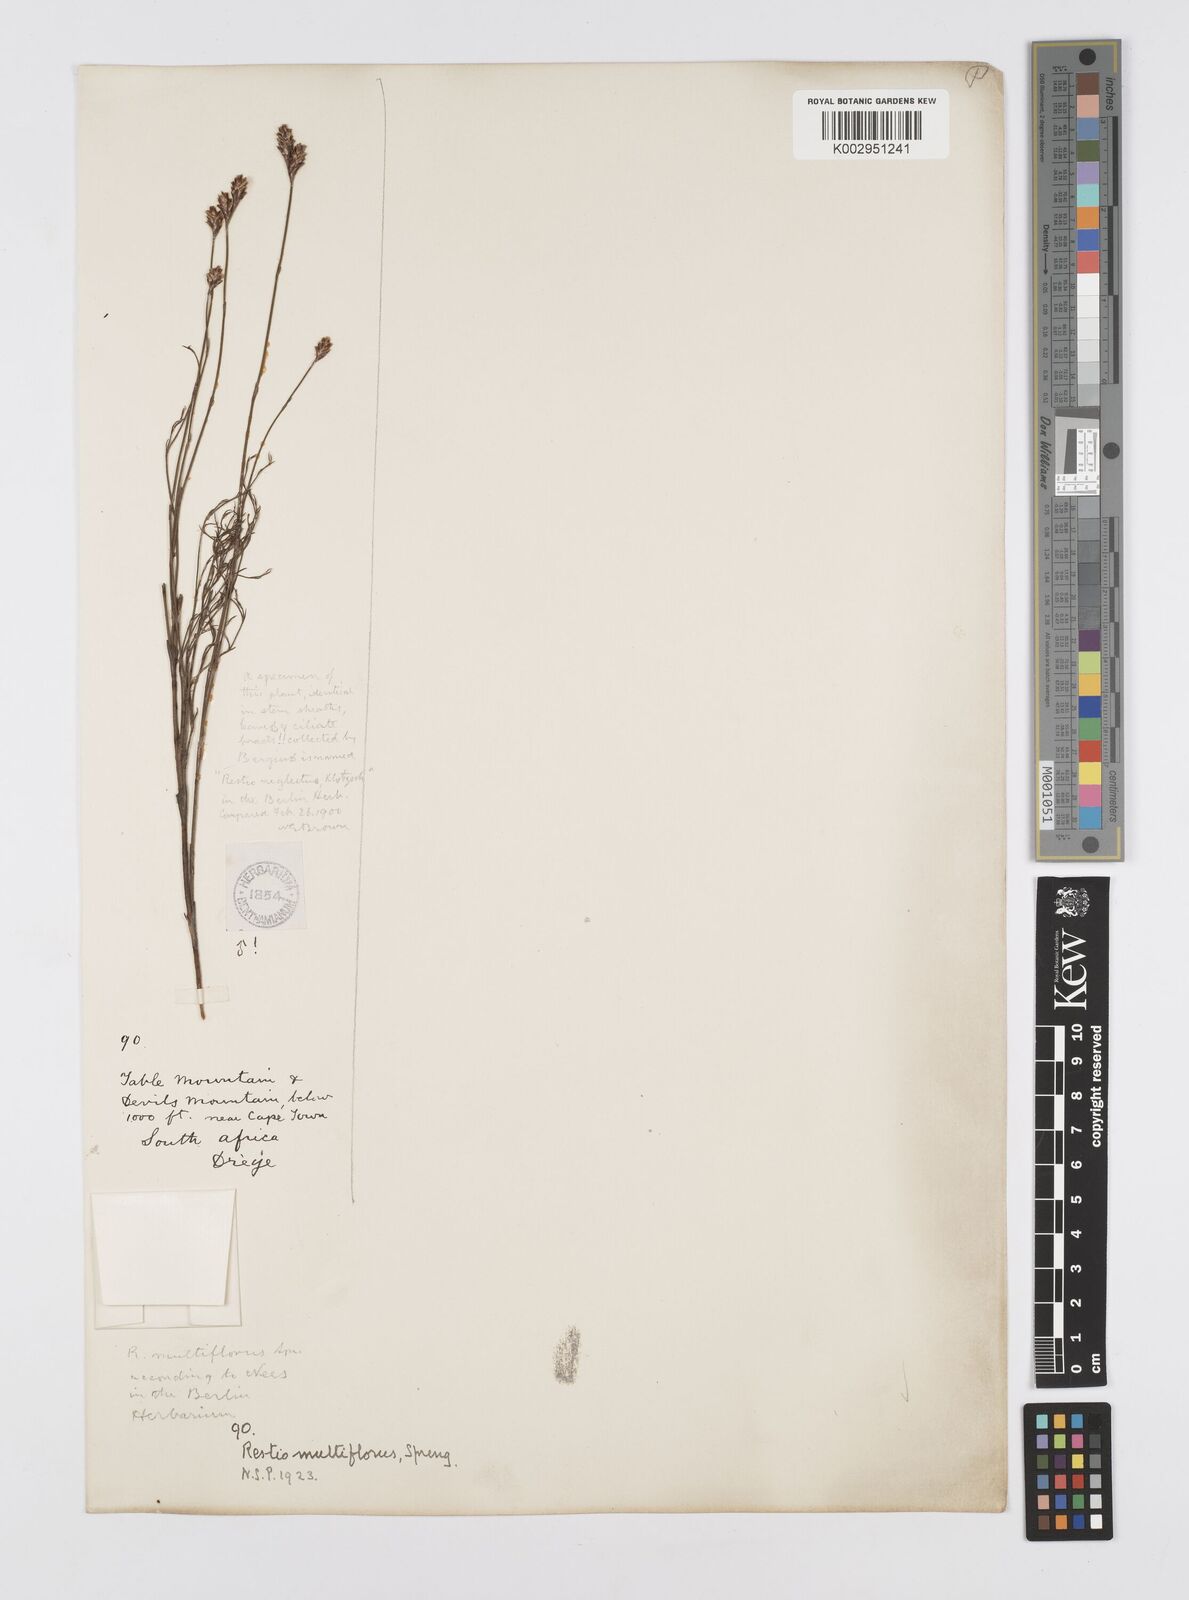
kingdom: Plantae
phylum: Tracheophyta
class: Liliopsida
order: Poales
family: Restionaceae
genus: Restio
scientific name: Restio multiflorus
